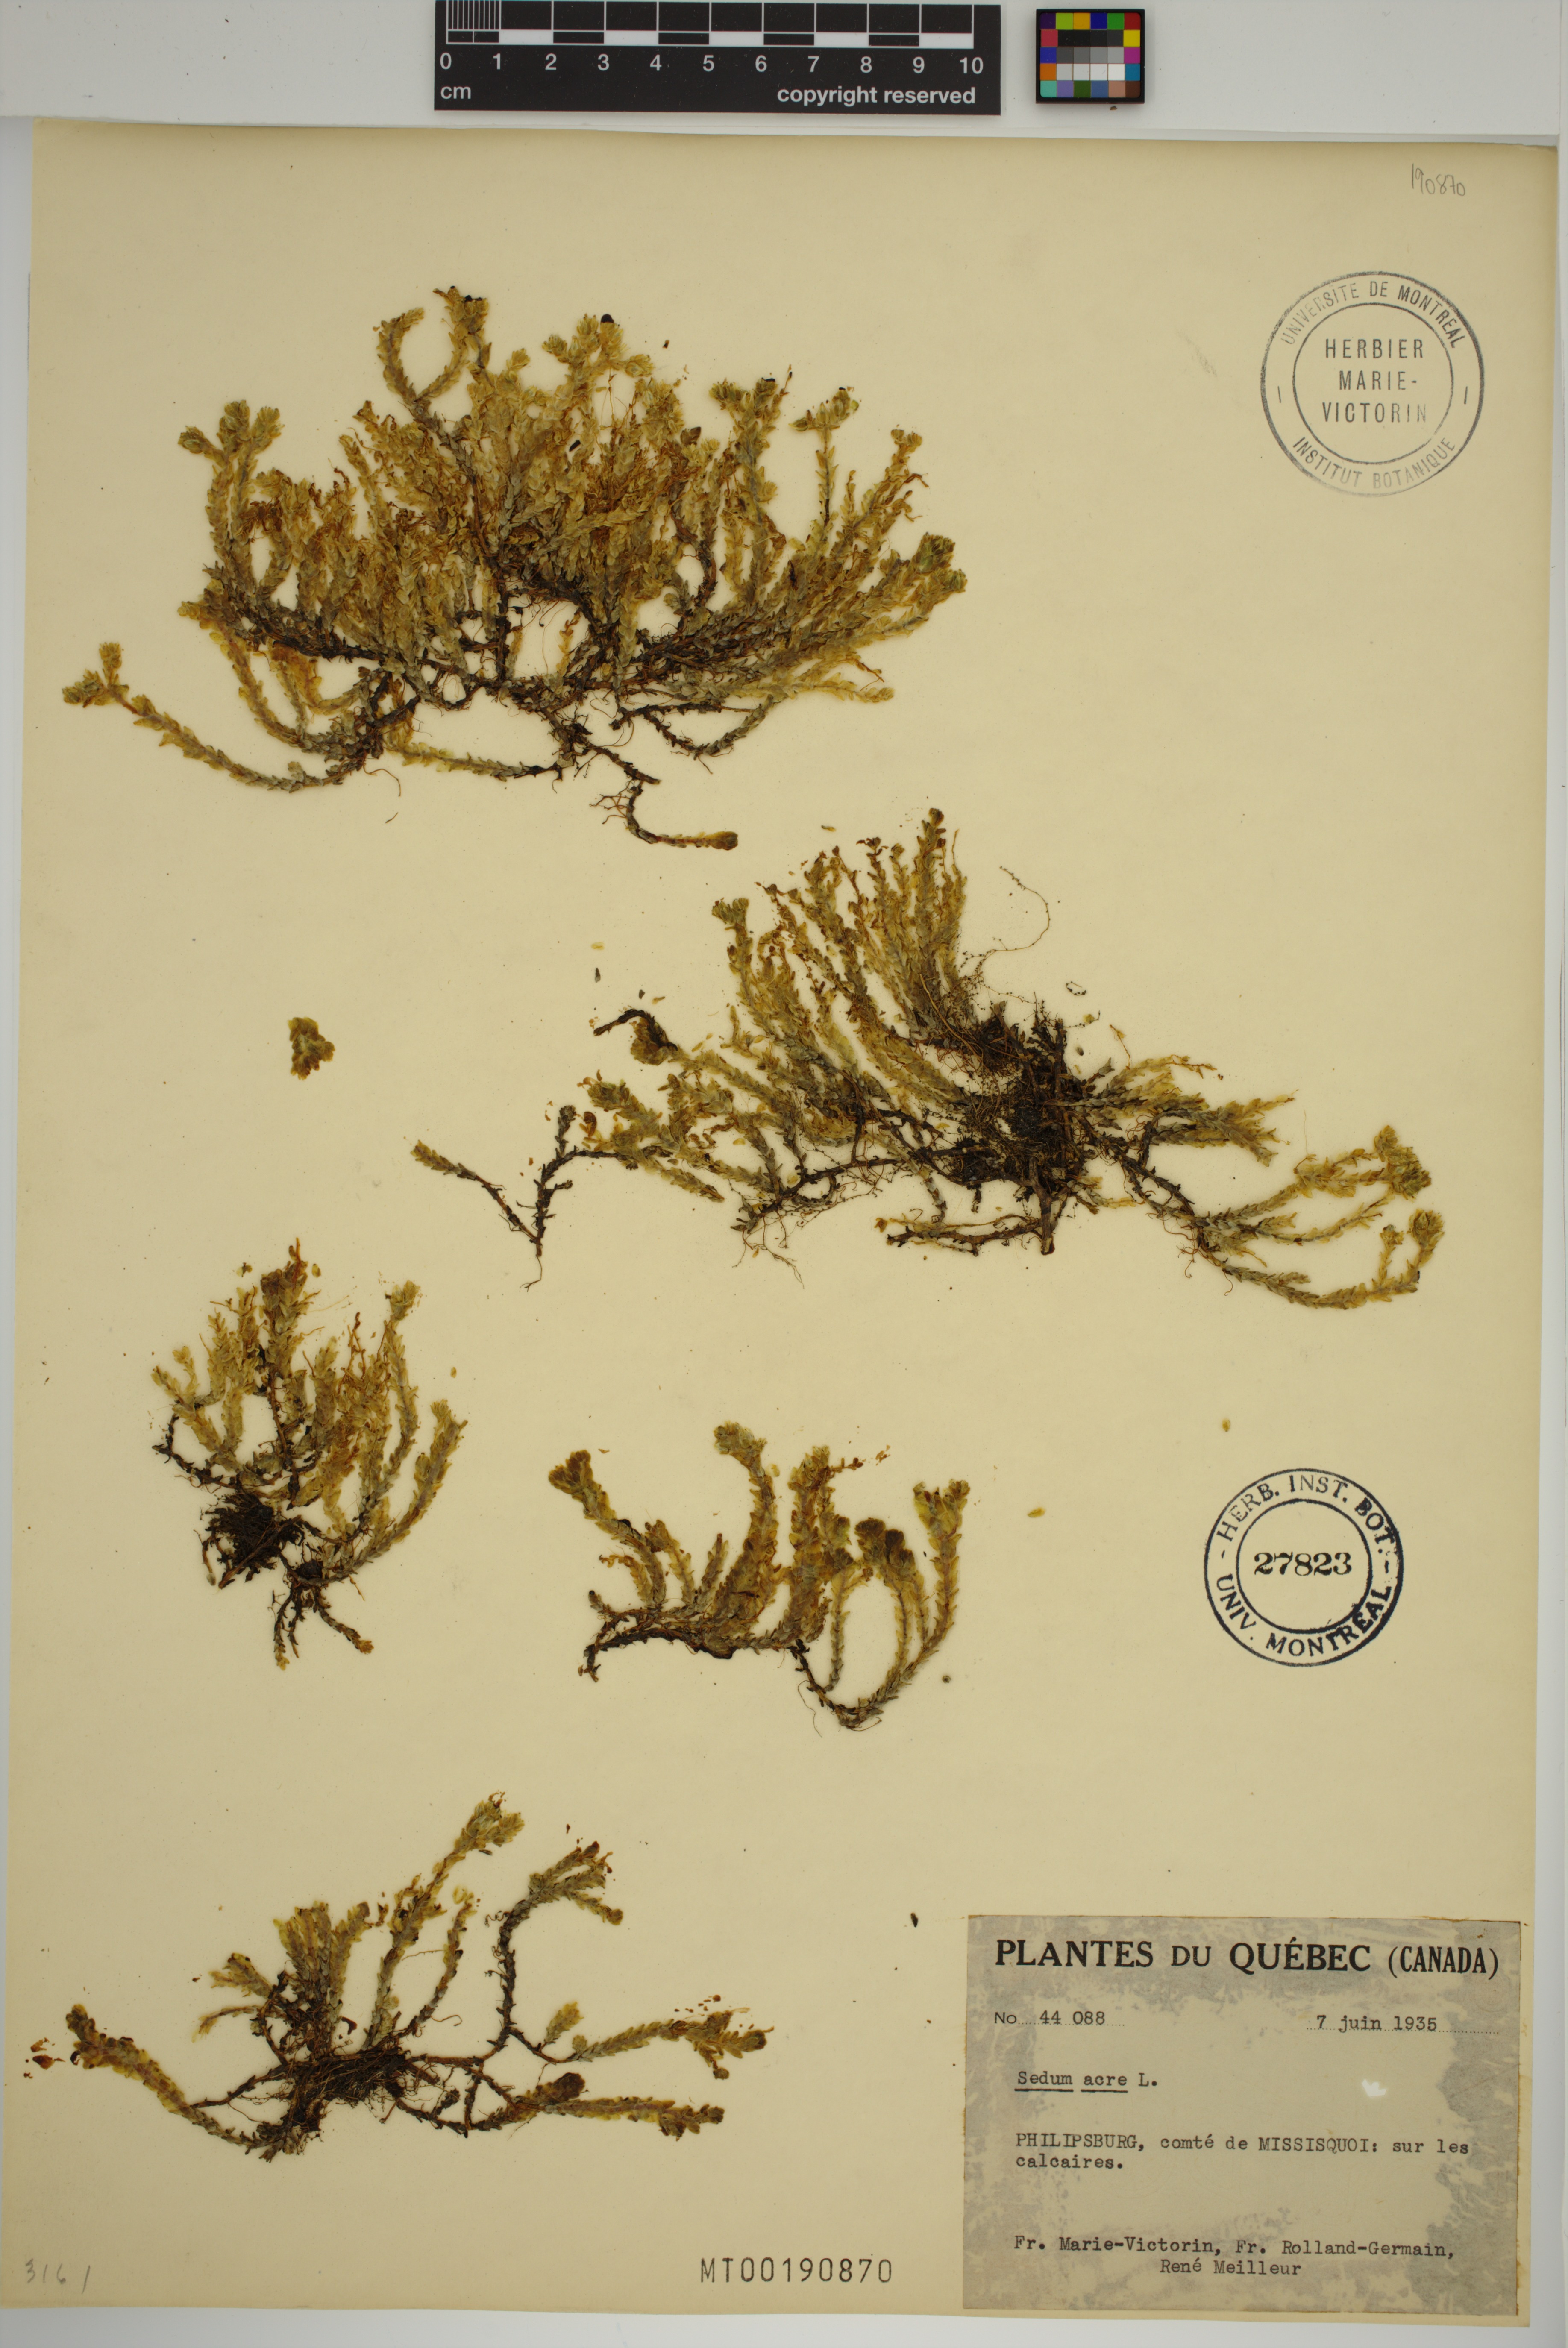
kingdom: Plantae
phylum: Tracheophyta
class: Magnoliopsida
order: Saxifragales
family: Crassulaceae
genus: Sedum
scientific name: Sedum acre
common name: Biting stonecrop
